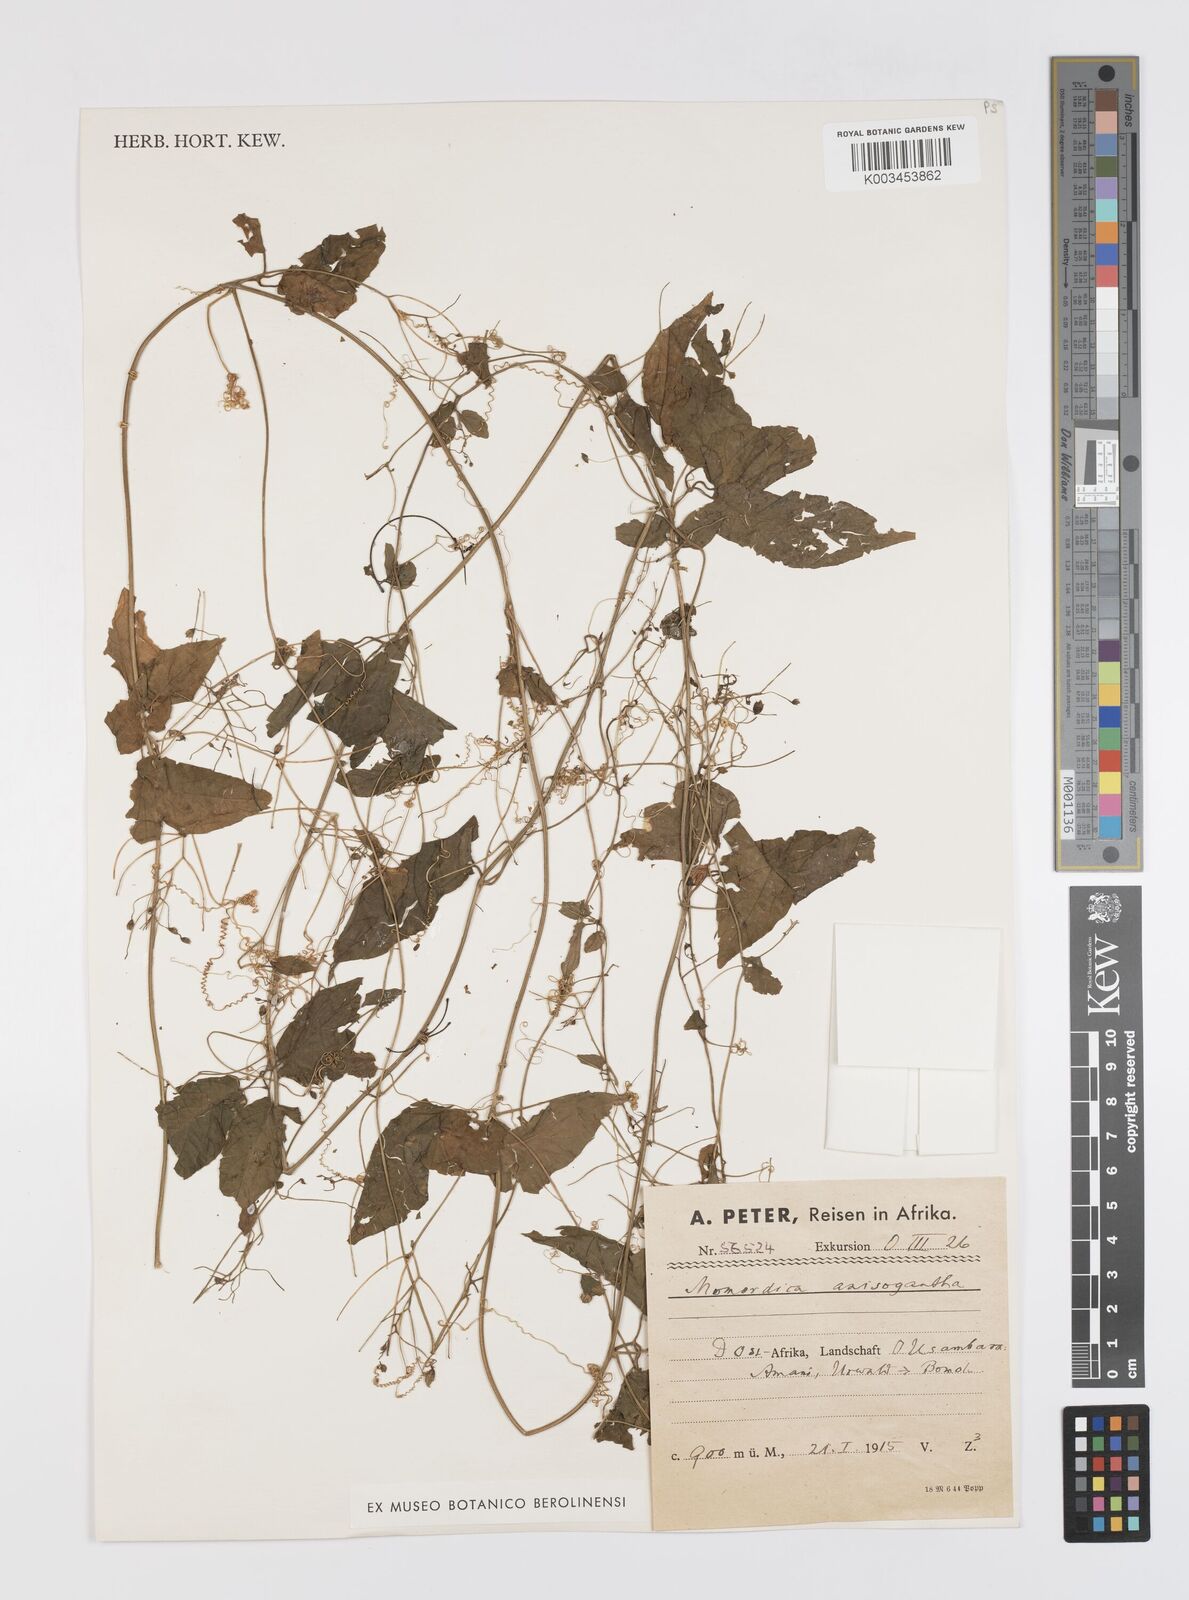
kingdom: Plantae
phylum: Tracheophyta
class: Magnoliopsida
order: Cucurbitales
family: Cucurbitaceae
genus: Momordica
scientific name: Momordica anigosantha
